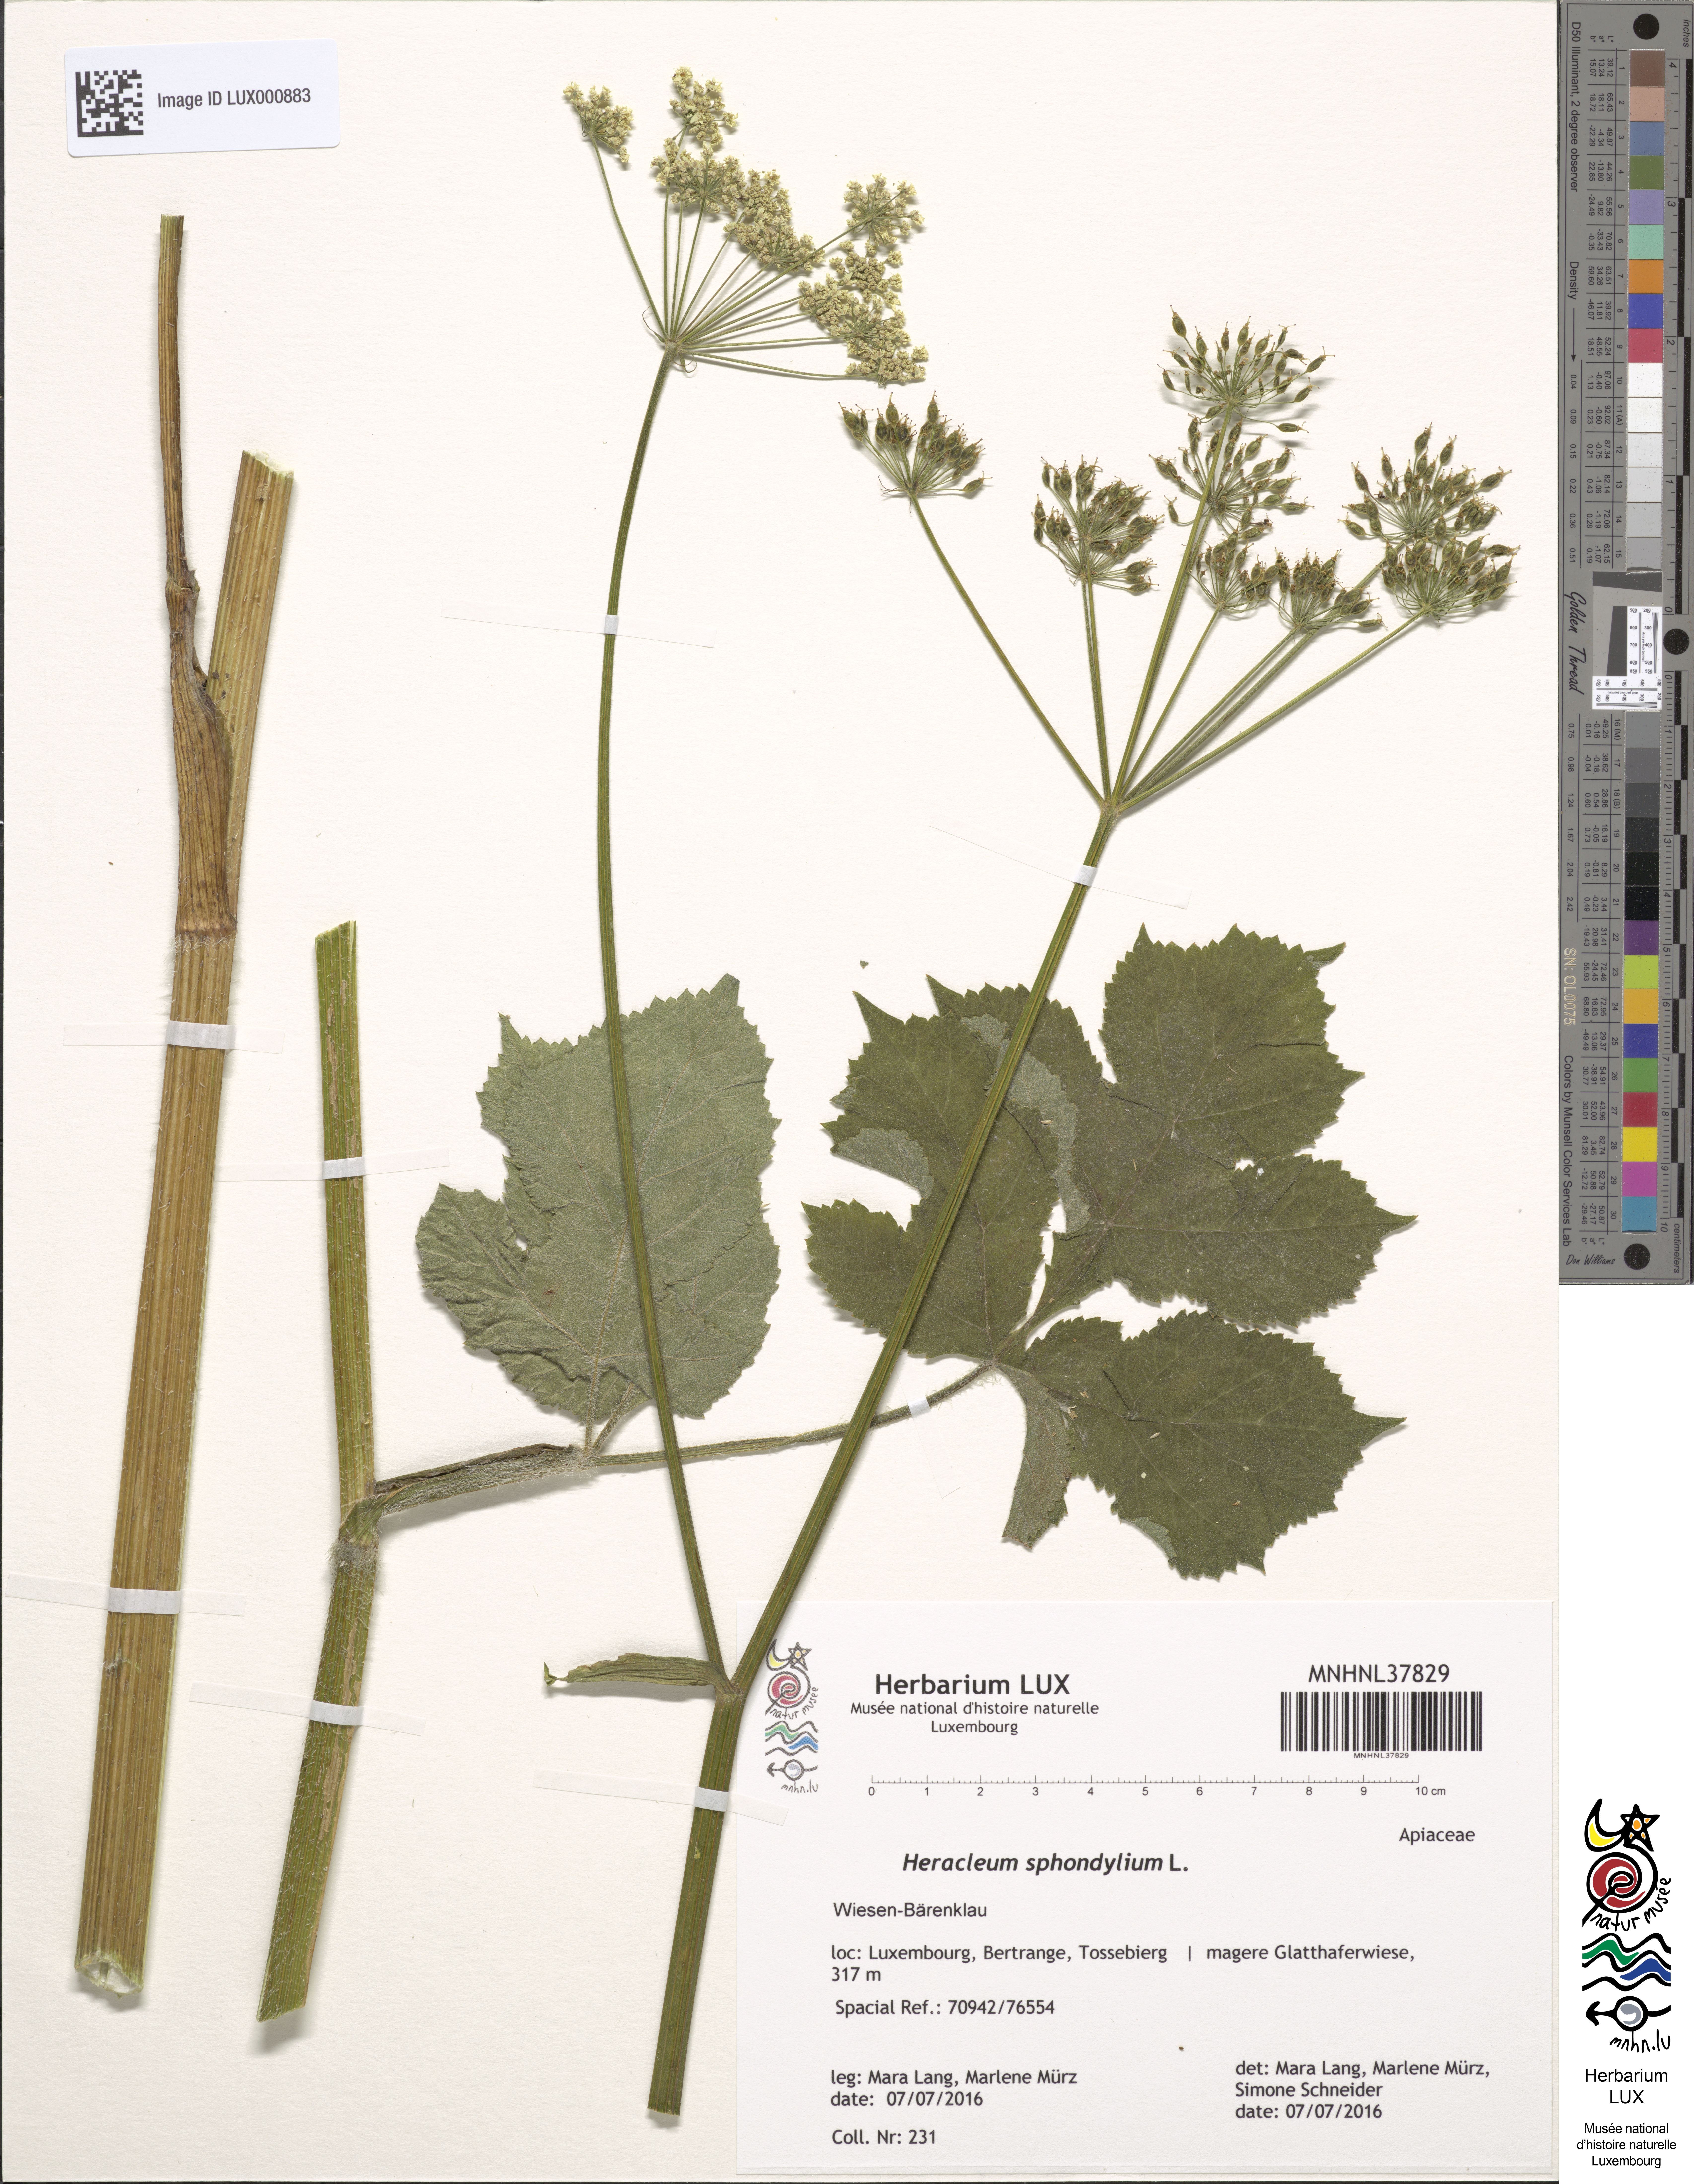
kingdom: Plantae
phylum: Tracheophyta
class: Magnoliopsida
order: Apiales
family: Apiaceae
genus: Heracleum
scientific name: Heracleum sphondylium
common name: Hogweed
